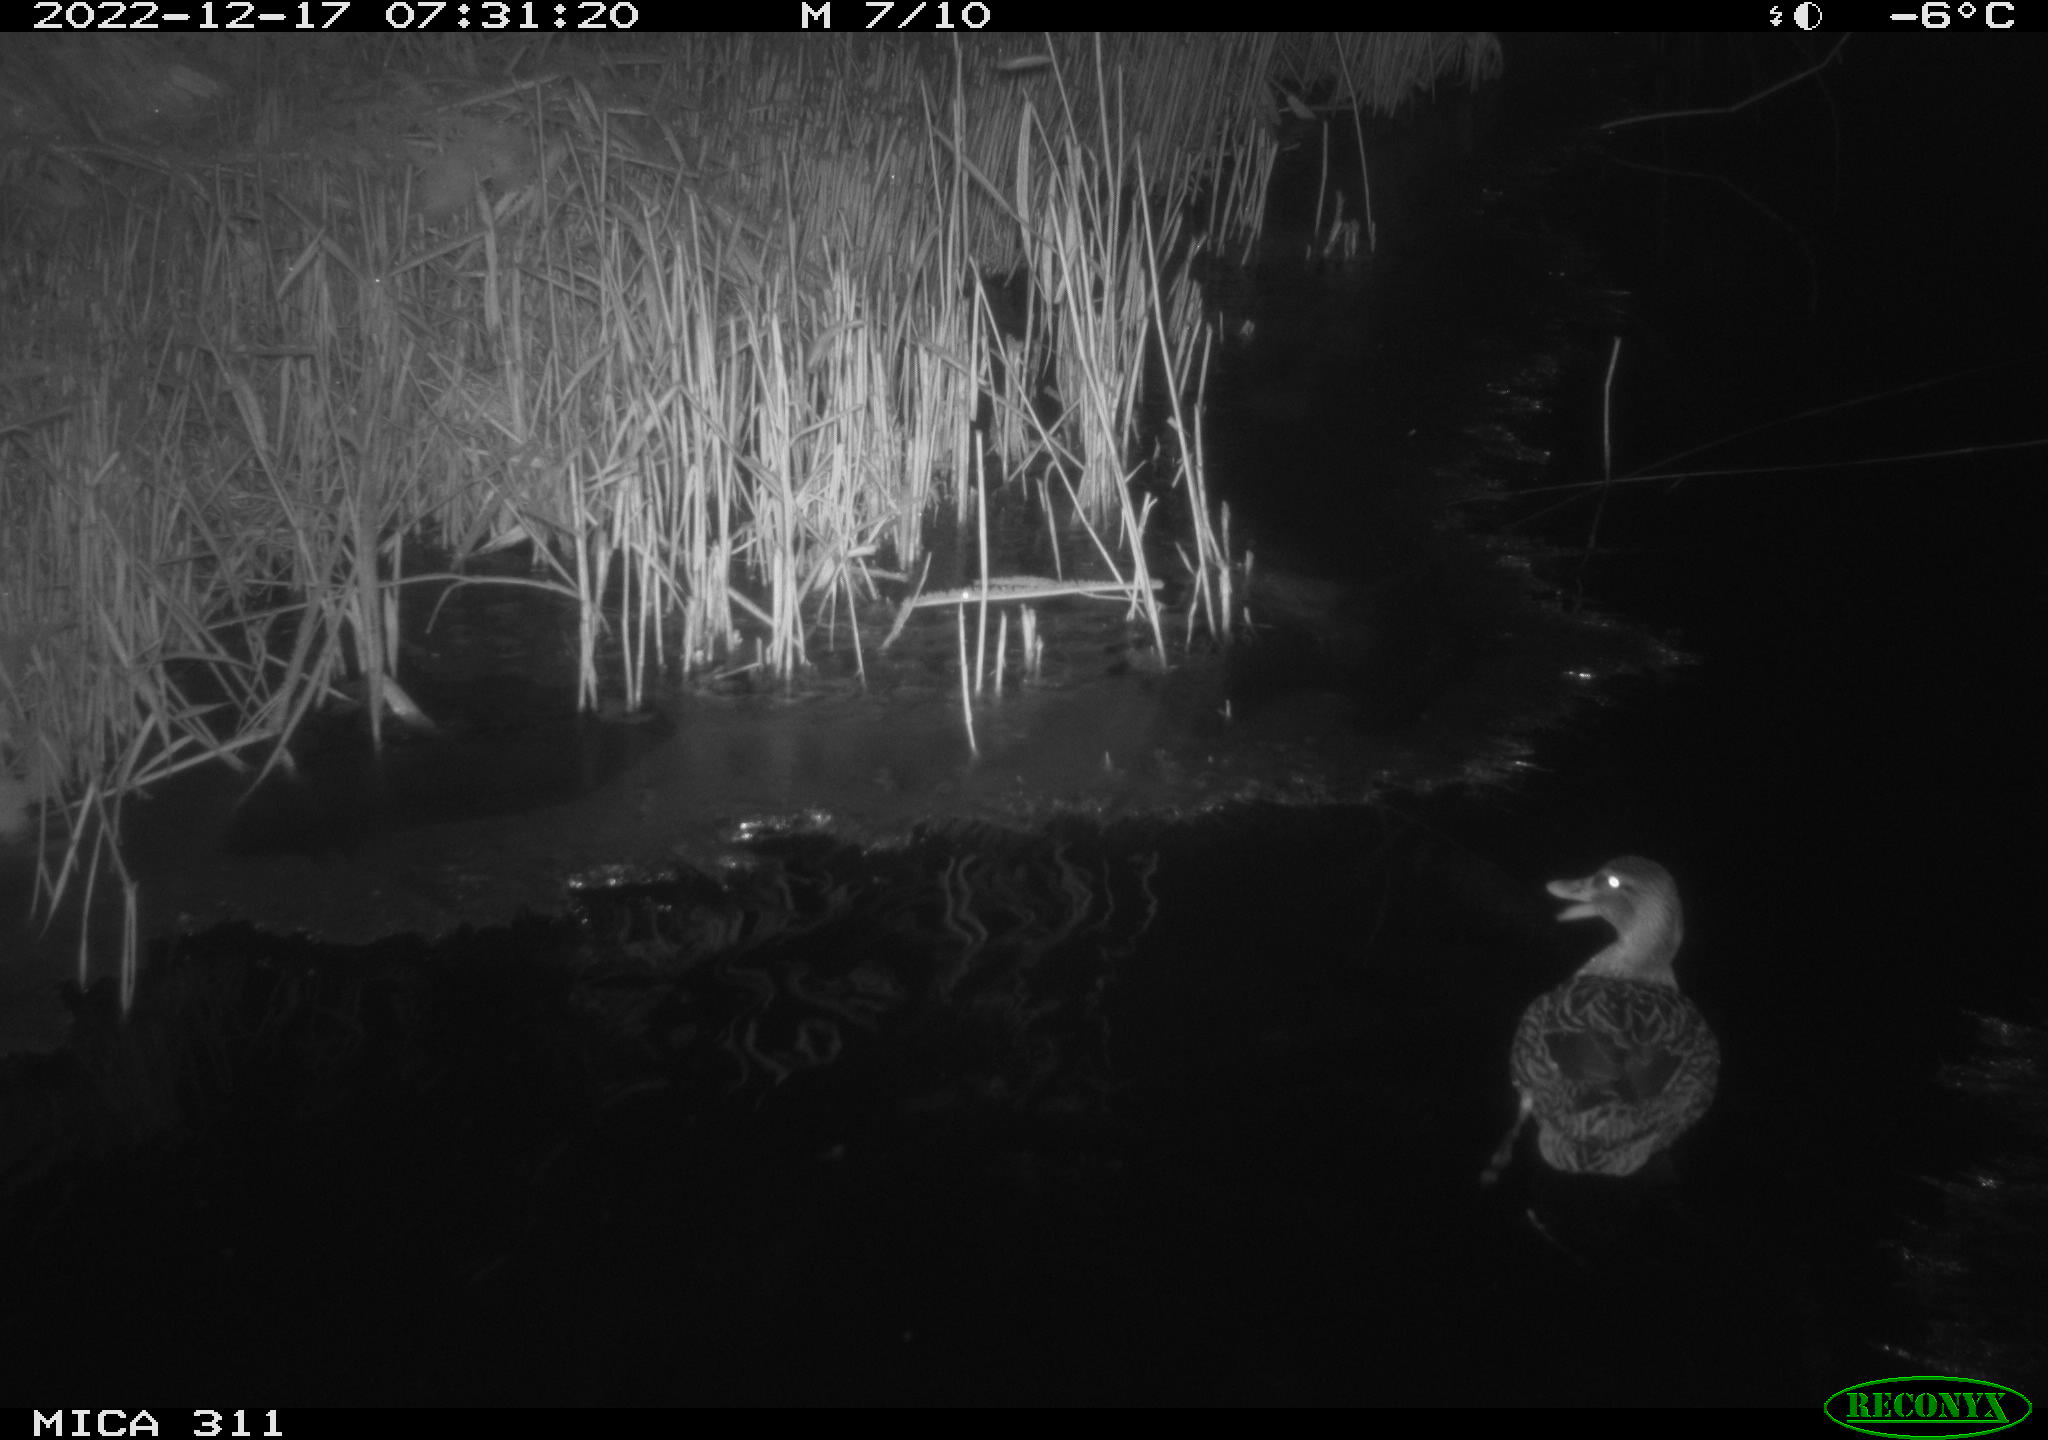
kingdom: Animalia
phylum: Chordata
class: Aves
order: Anseriformes
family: Anatidae
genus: Anas
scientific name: Anas platyrhynchos
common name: Mallard
